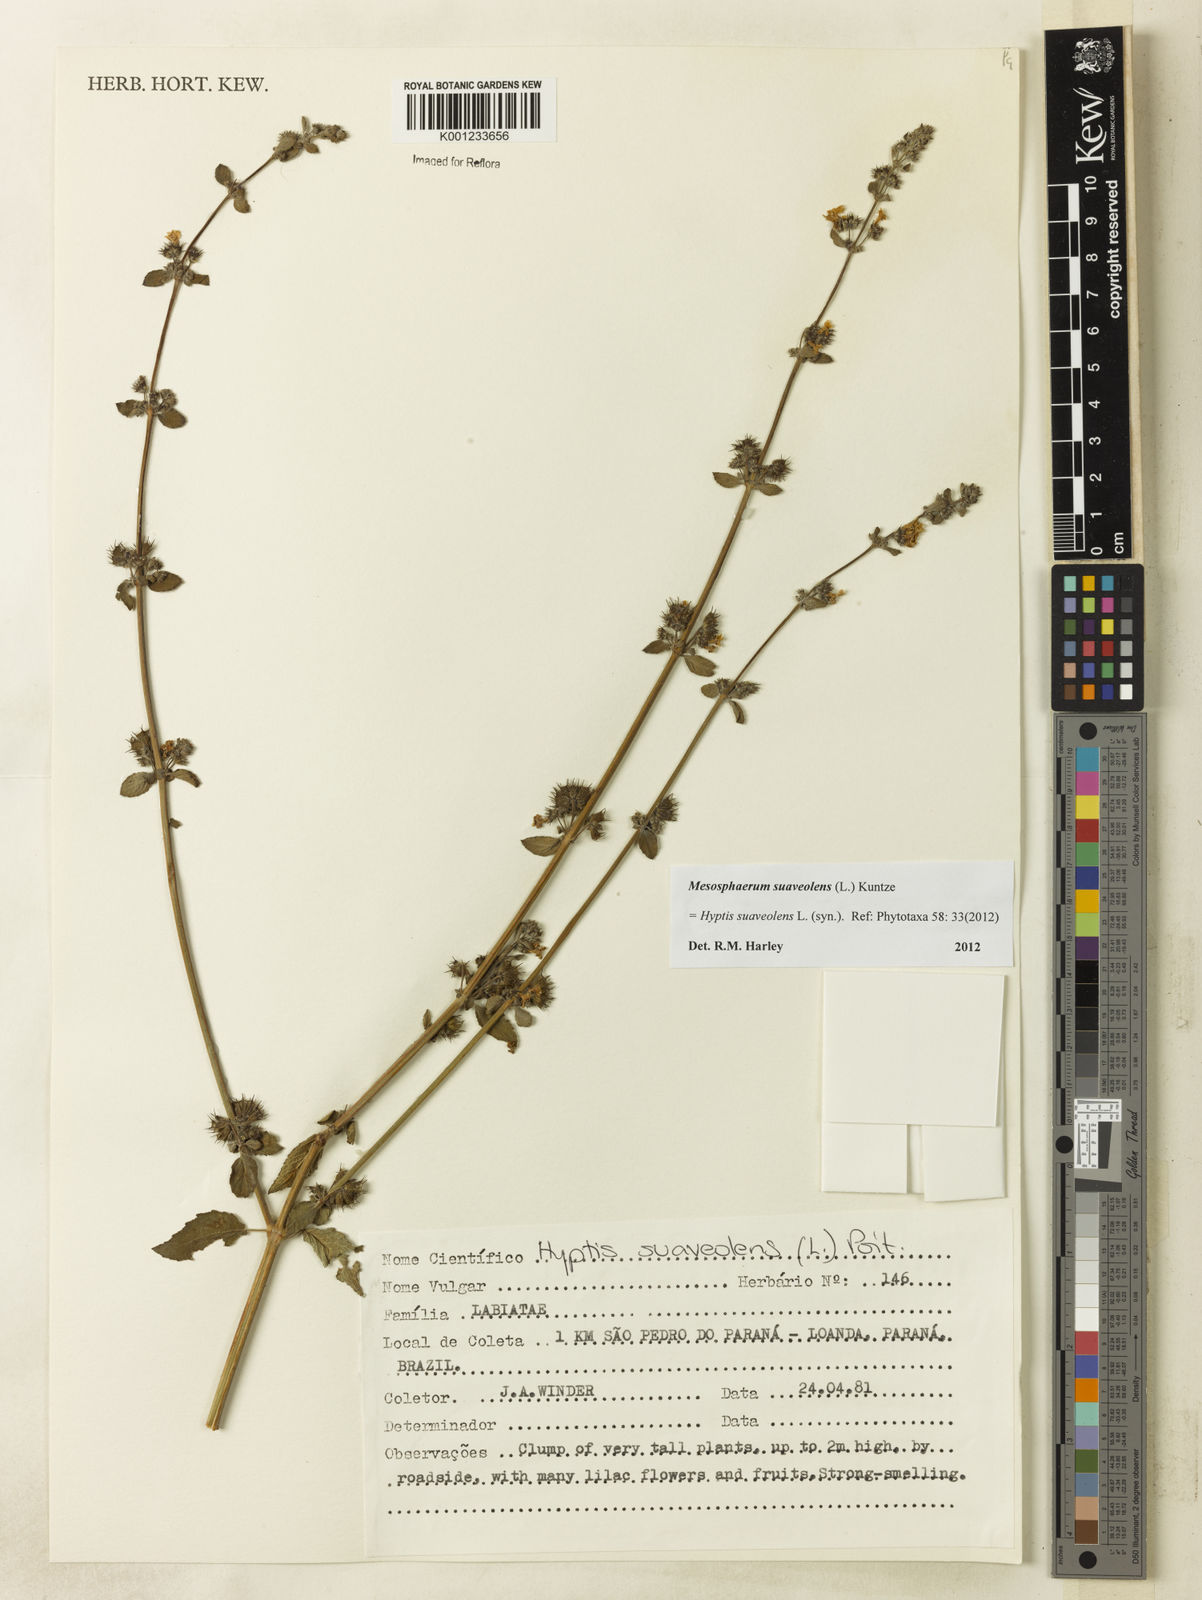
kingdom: Plantae
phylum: Tracheophyta
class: Magnoliopsida
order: Lamiales
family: Lamiaceae
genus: Mesosphaerum
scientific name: Mesosphaerum suaveolens
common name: Pignut
